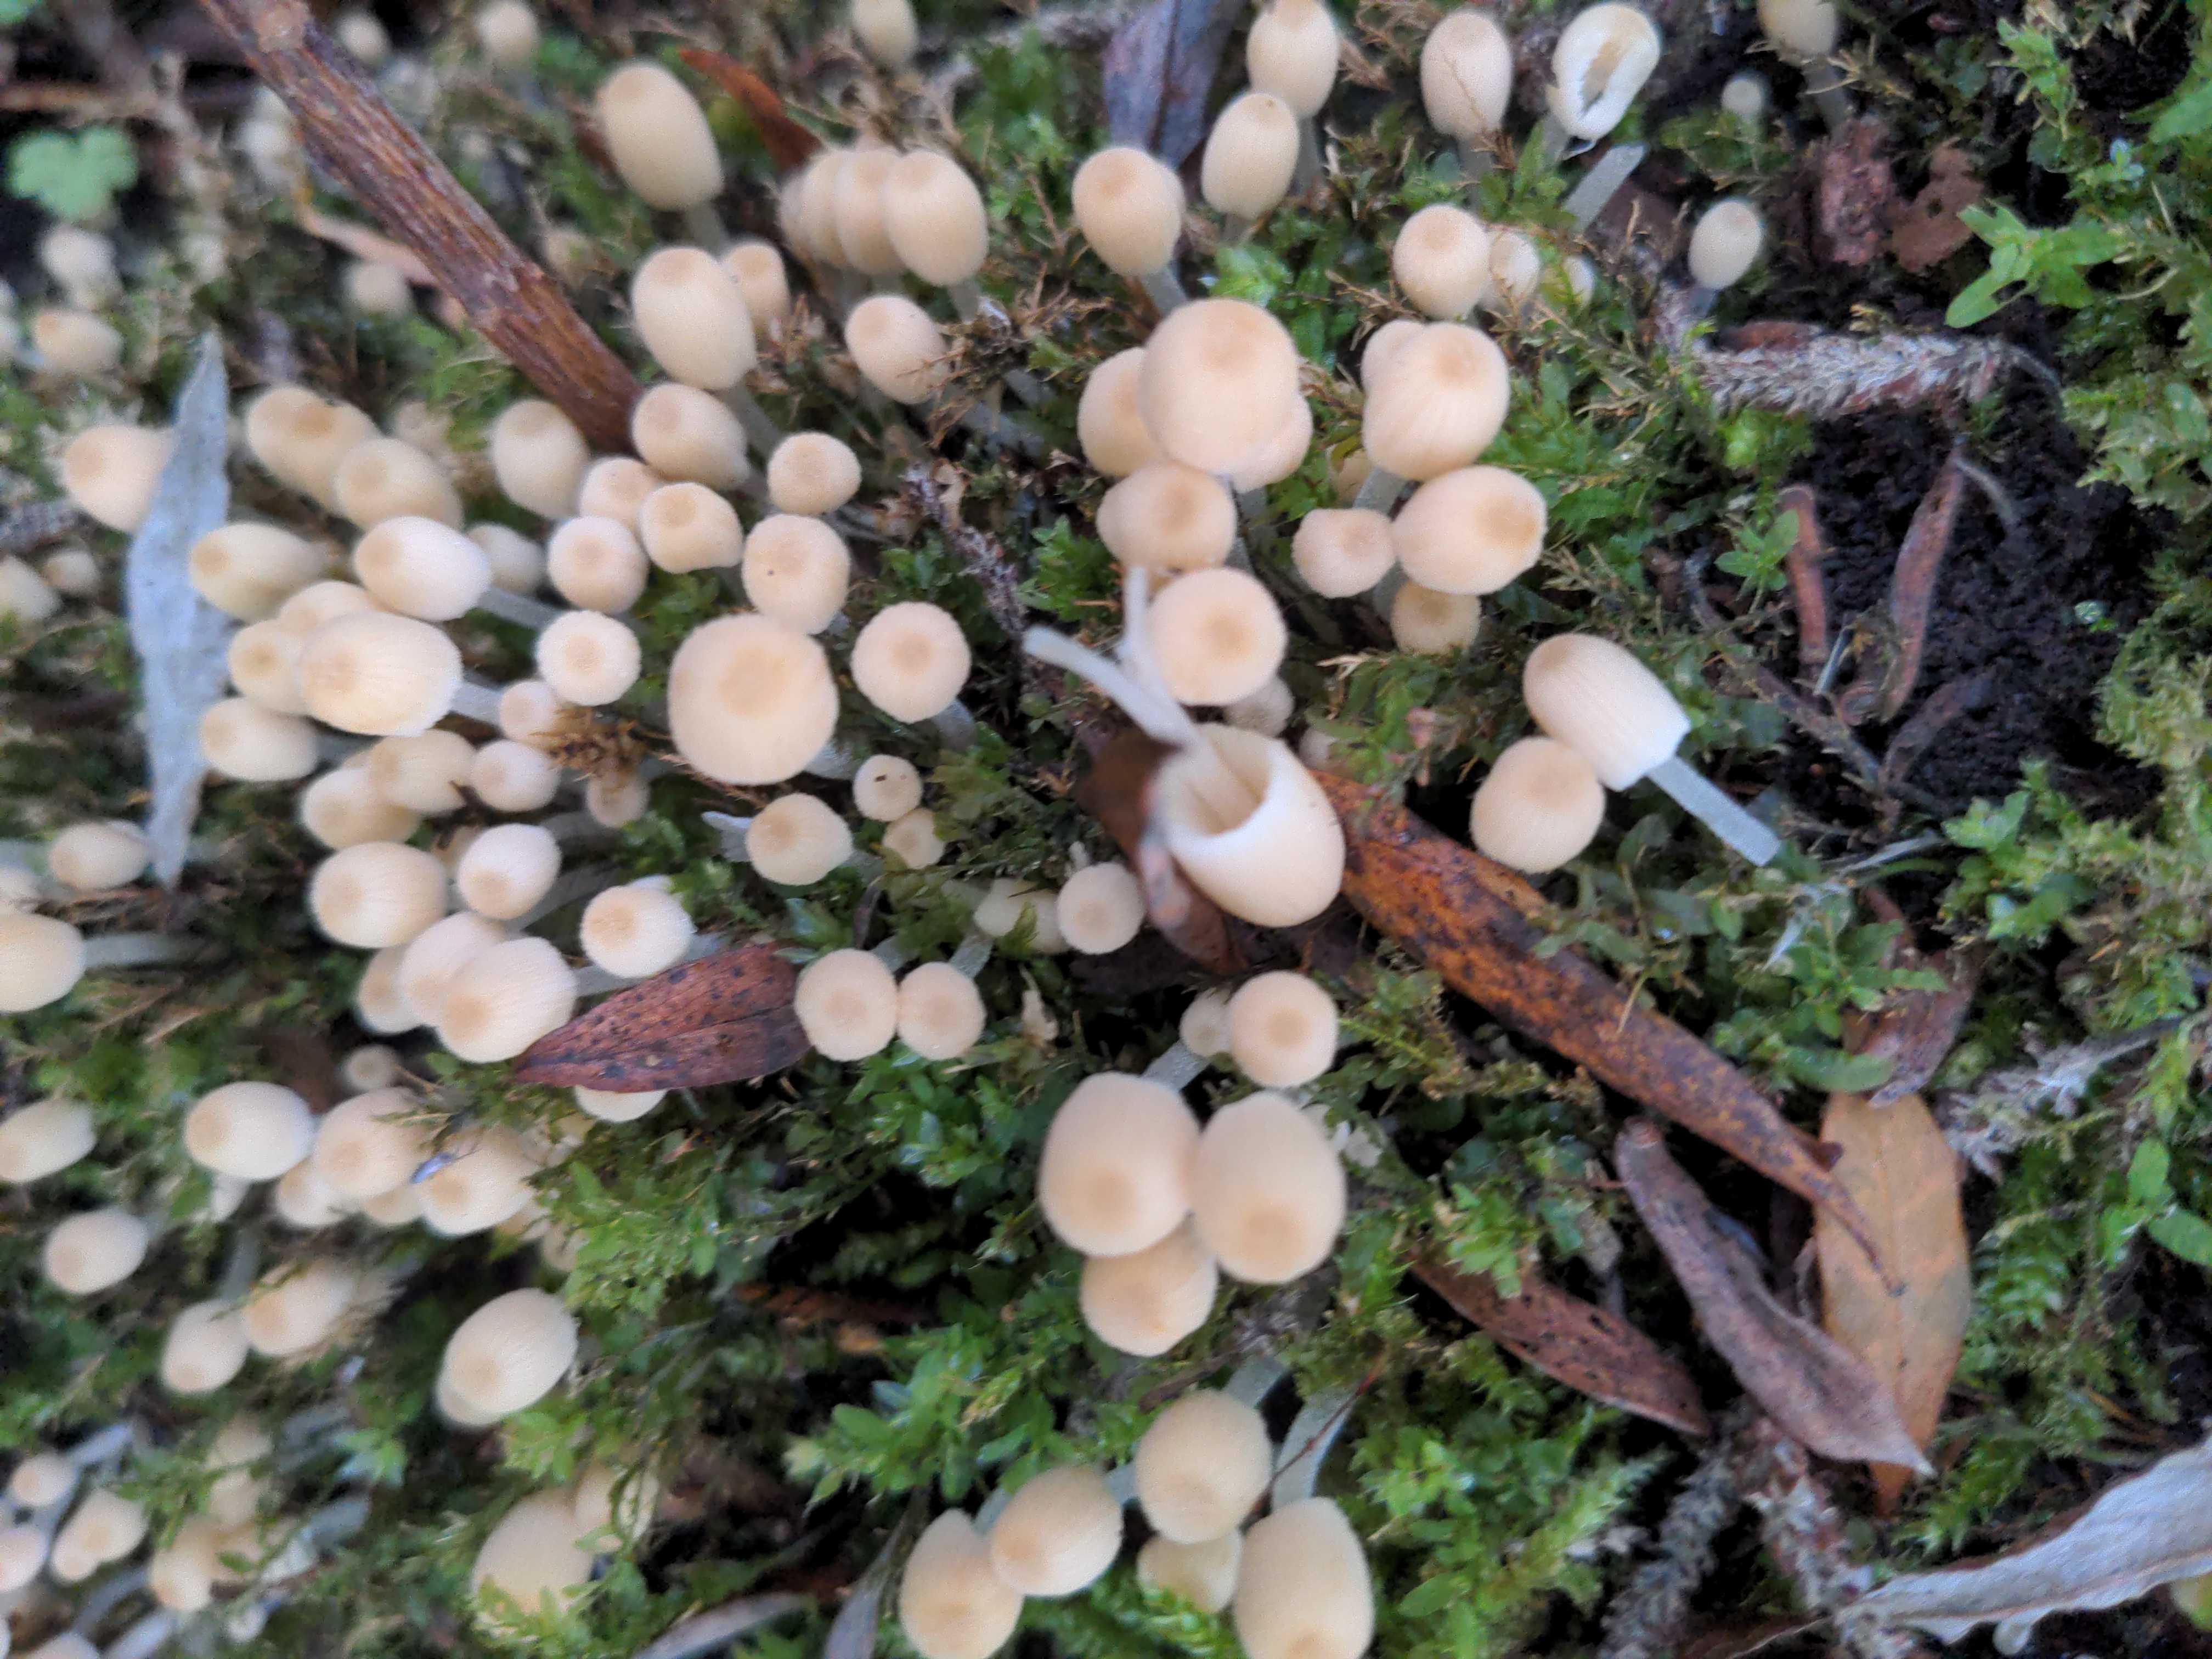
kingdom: Fungi
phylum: Basidiomycota
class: Agaricomycetes
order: Agaricales
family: Psathyrellaceae
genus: Coprinellus
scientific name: Coprinellus disseminatus
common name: bredsået blækhat
